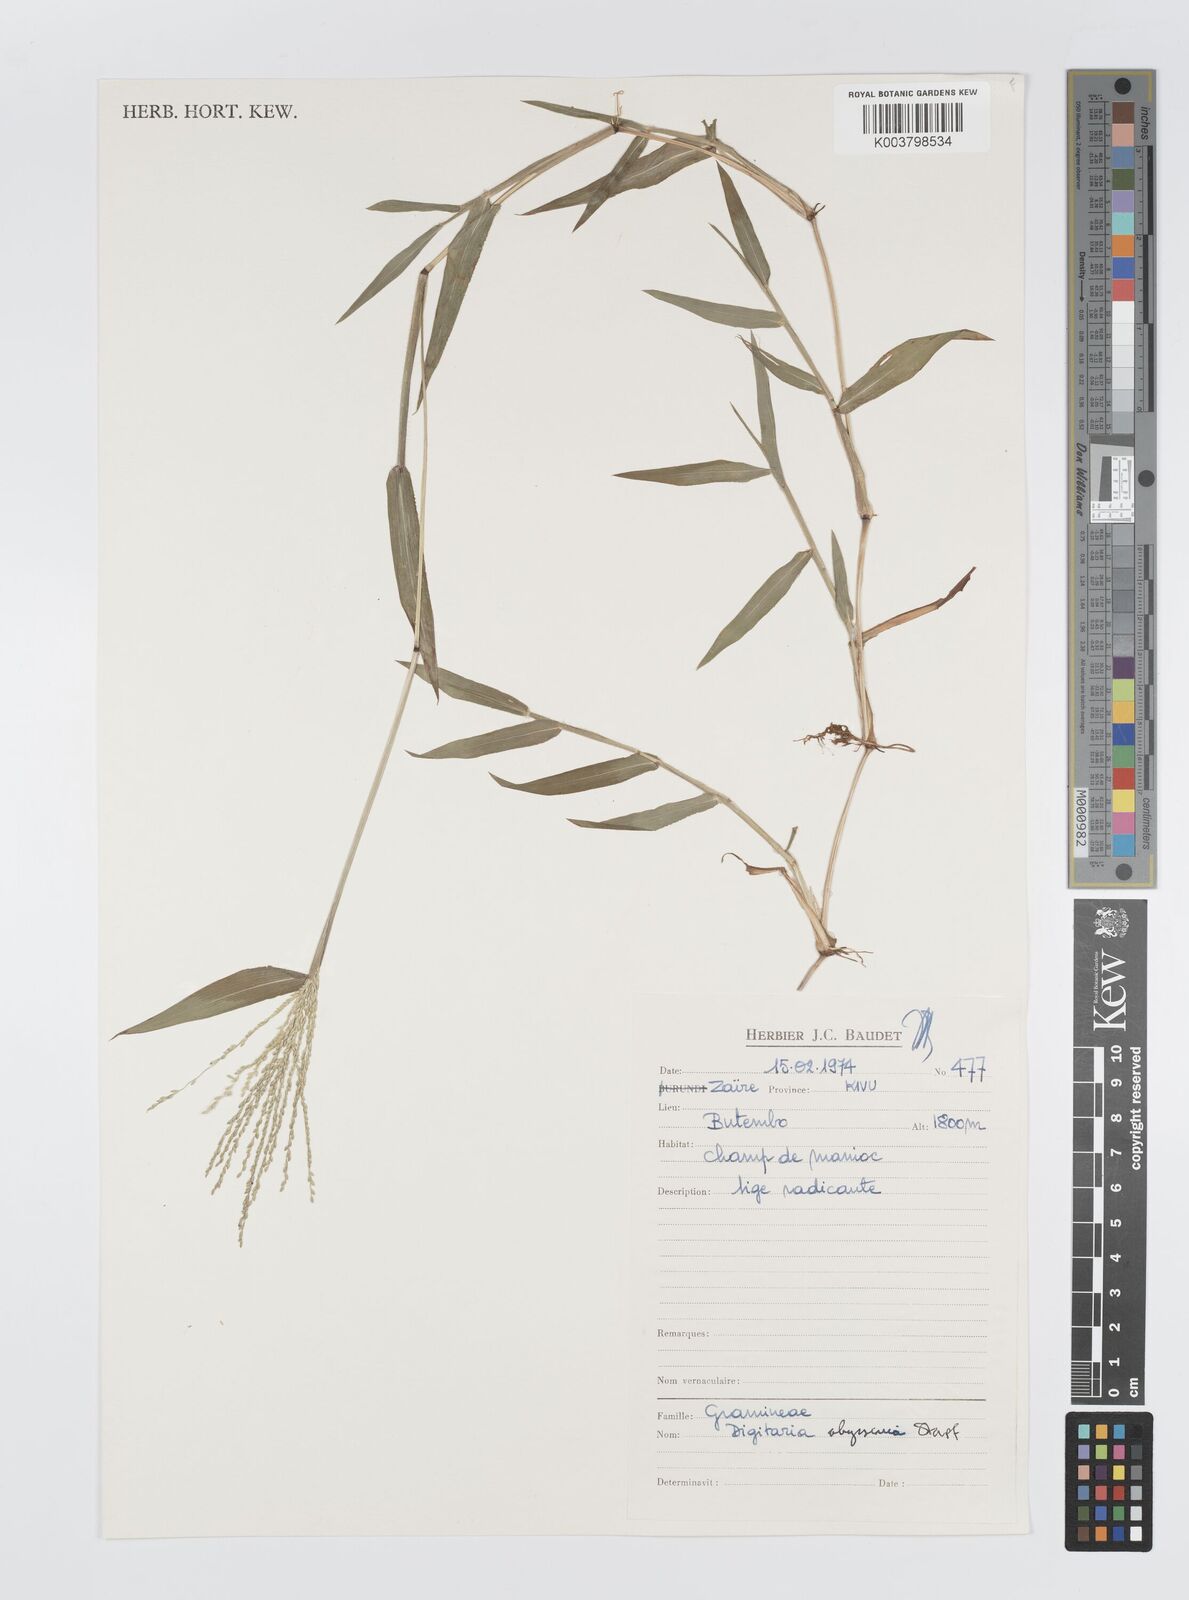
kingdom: Plantae
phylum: Tracheophyta
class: Liliopsida
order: Poales
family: Poaceae
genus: Digitaria
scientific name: Digitaria abyssinica
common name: African couchgrass
